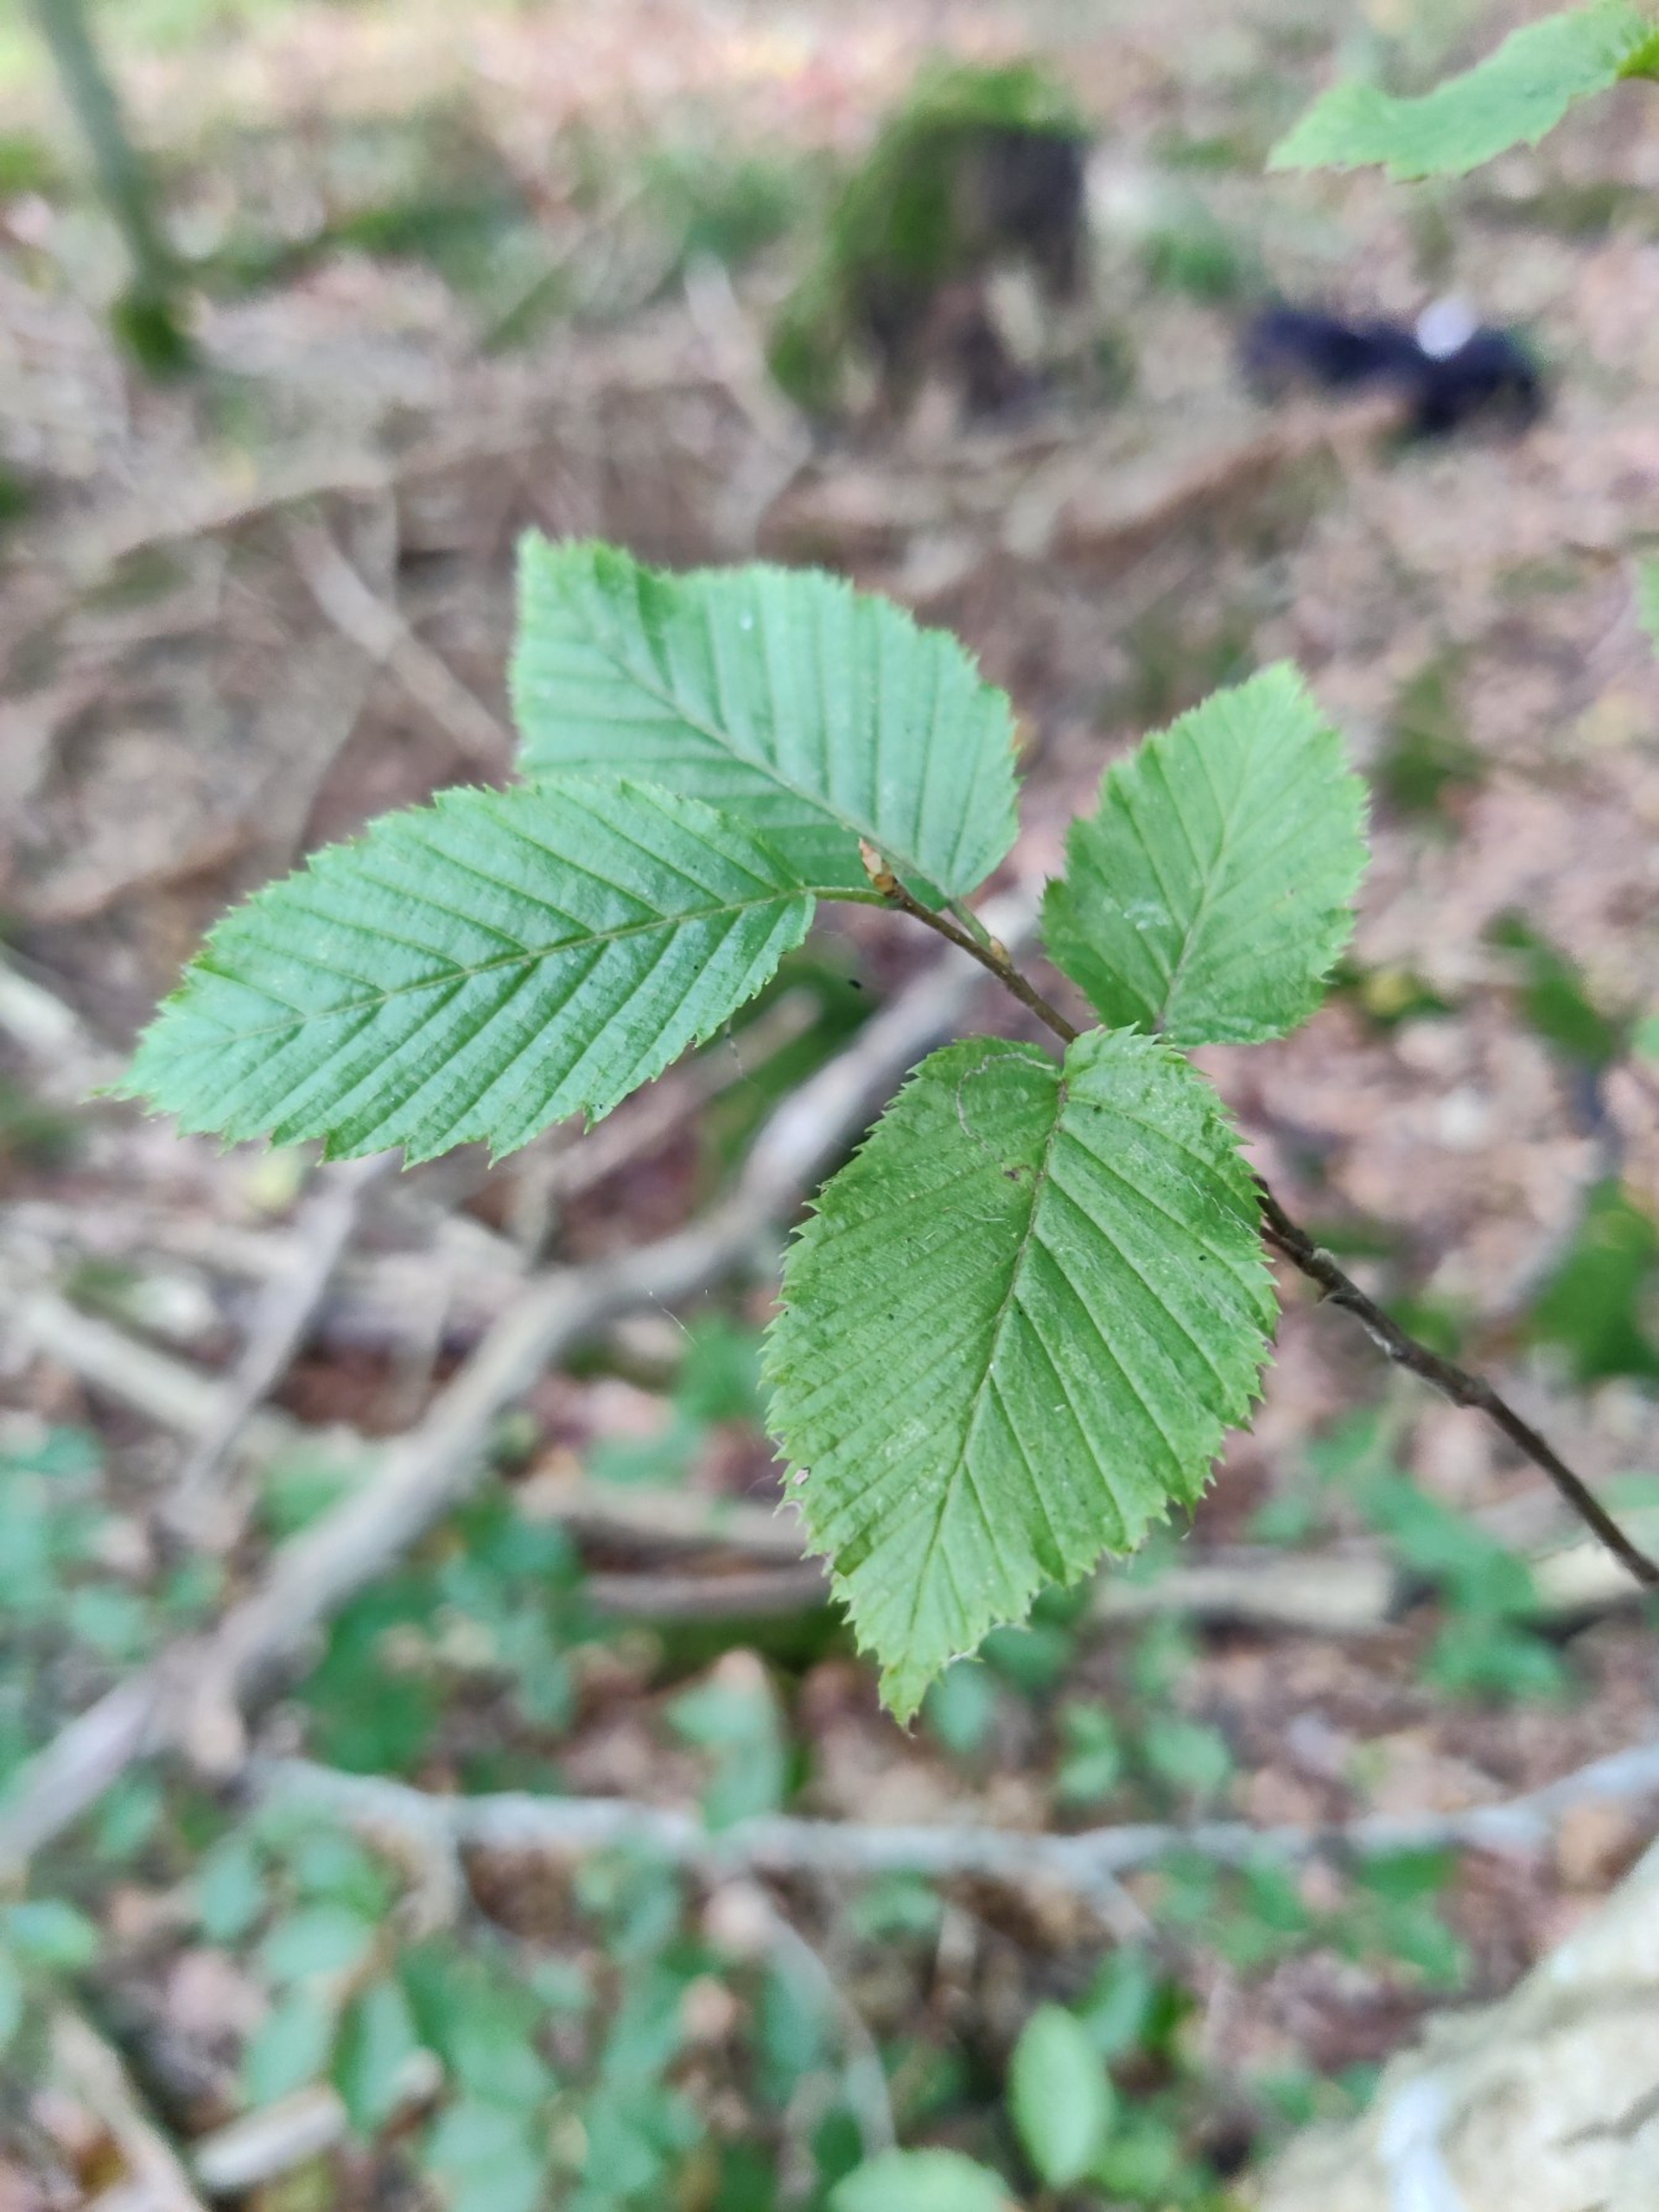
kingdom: Plantae
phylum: Tracheophyta
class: Magnoliopsida
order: Fagales
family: Betulaceae
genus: Carpinus
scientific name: Carpinus betulus
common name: Avnbøg
